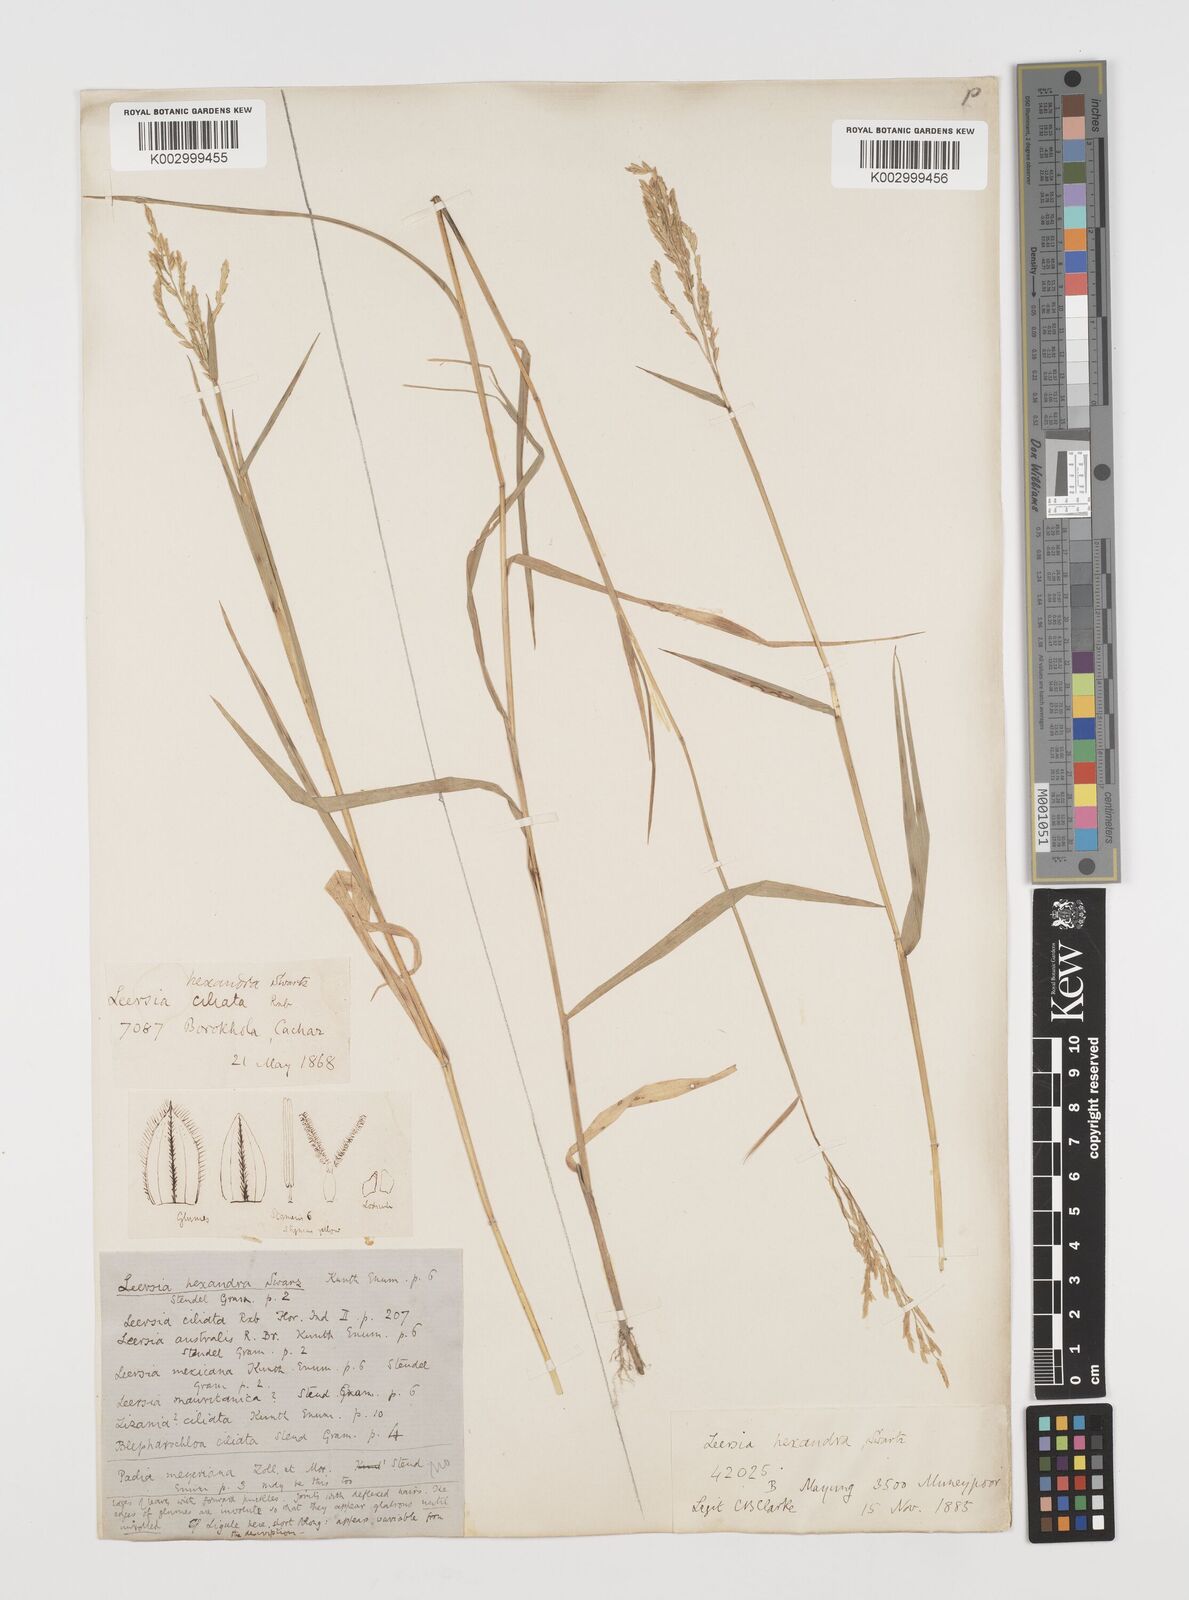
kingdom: Plantae
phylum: Tracheophyta
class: Liliopsida
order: Poales
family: Poaceae
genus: Leersia
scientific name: Leersia hexandra
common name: Southern cut grass
